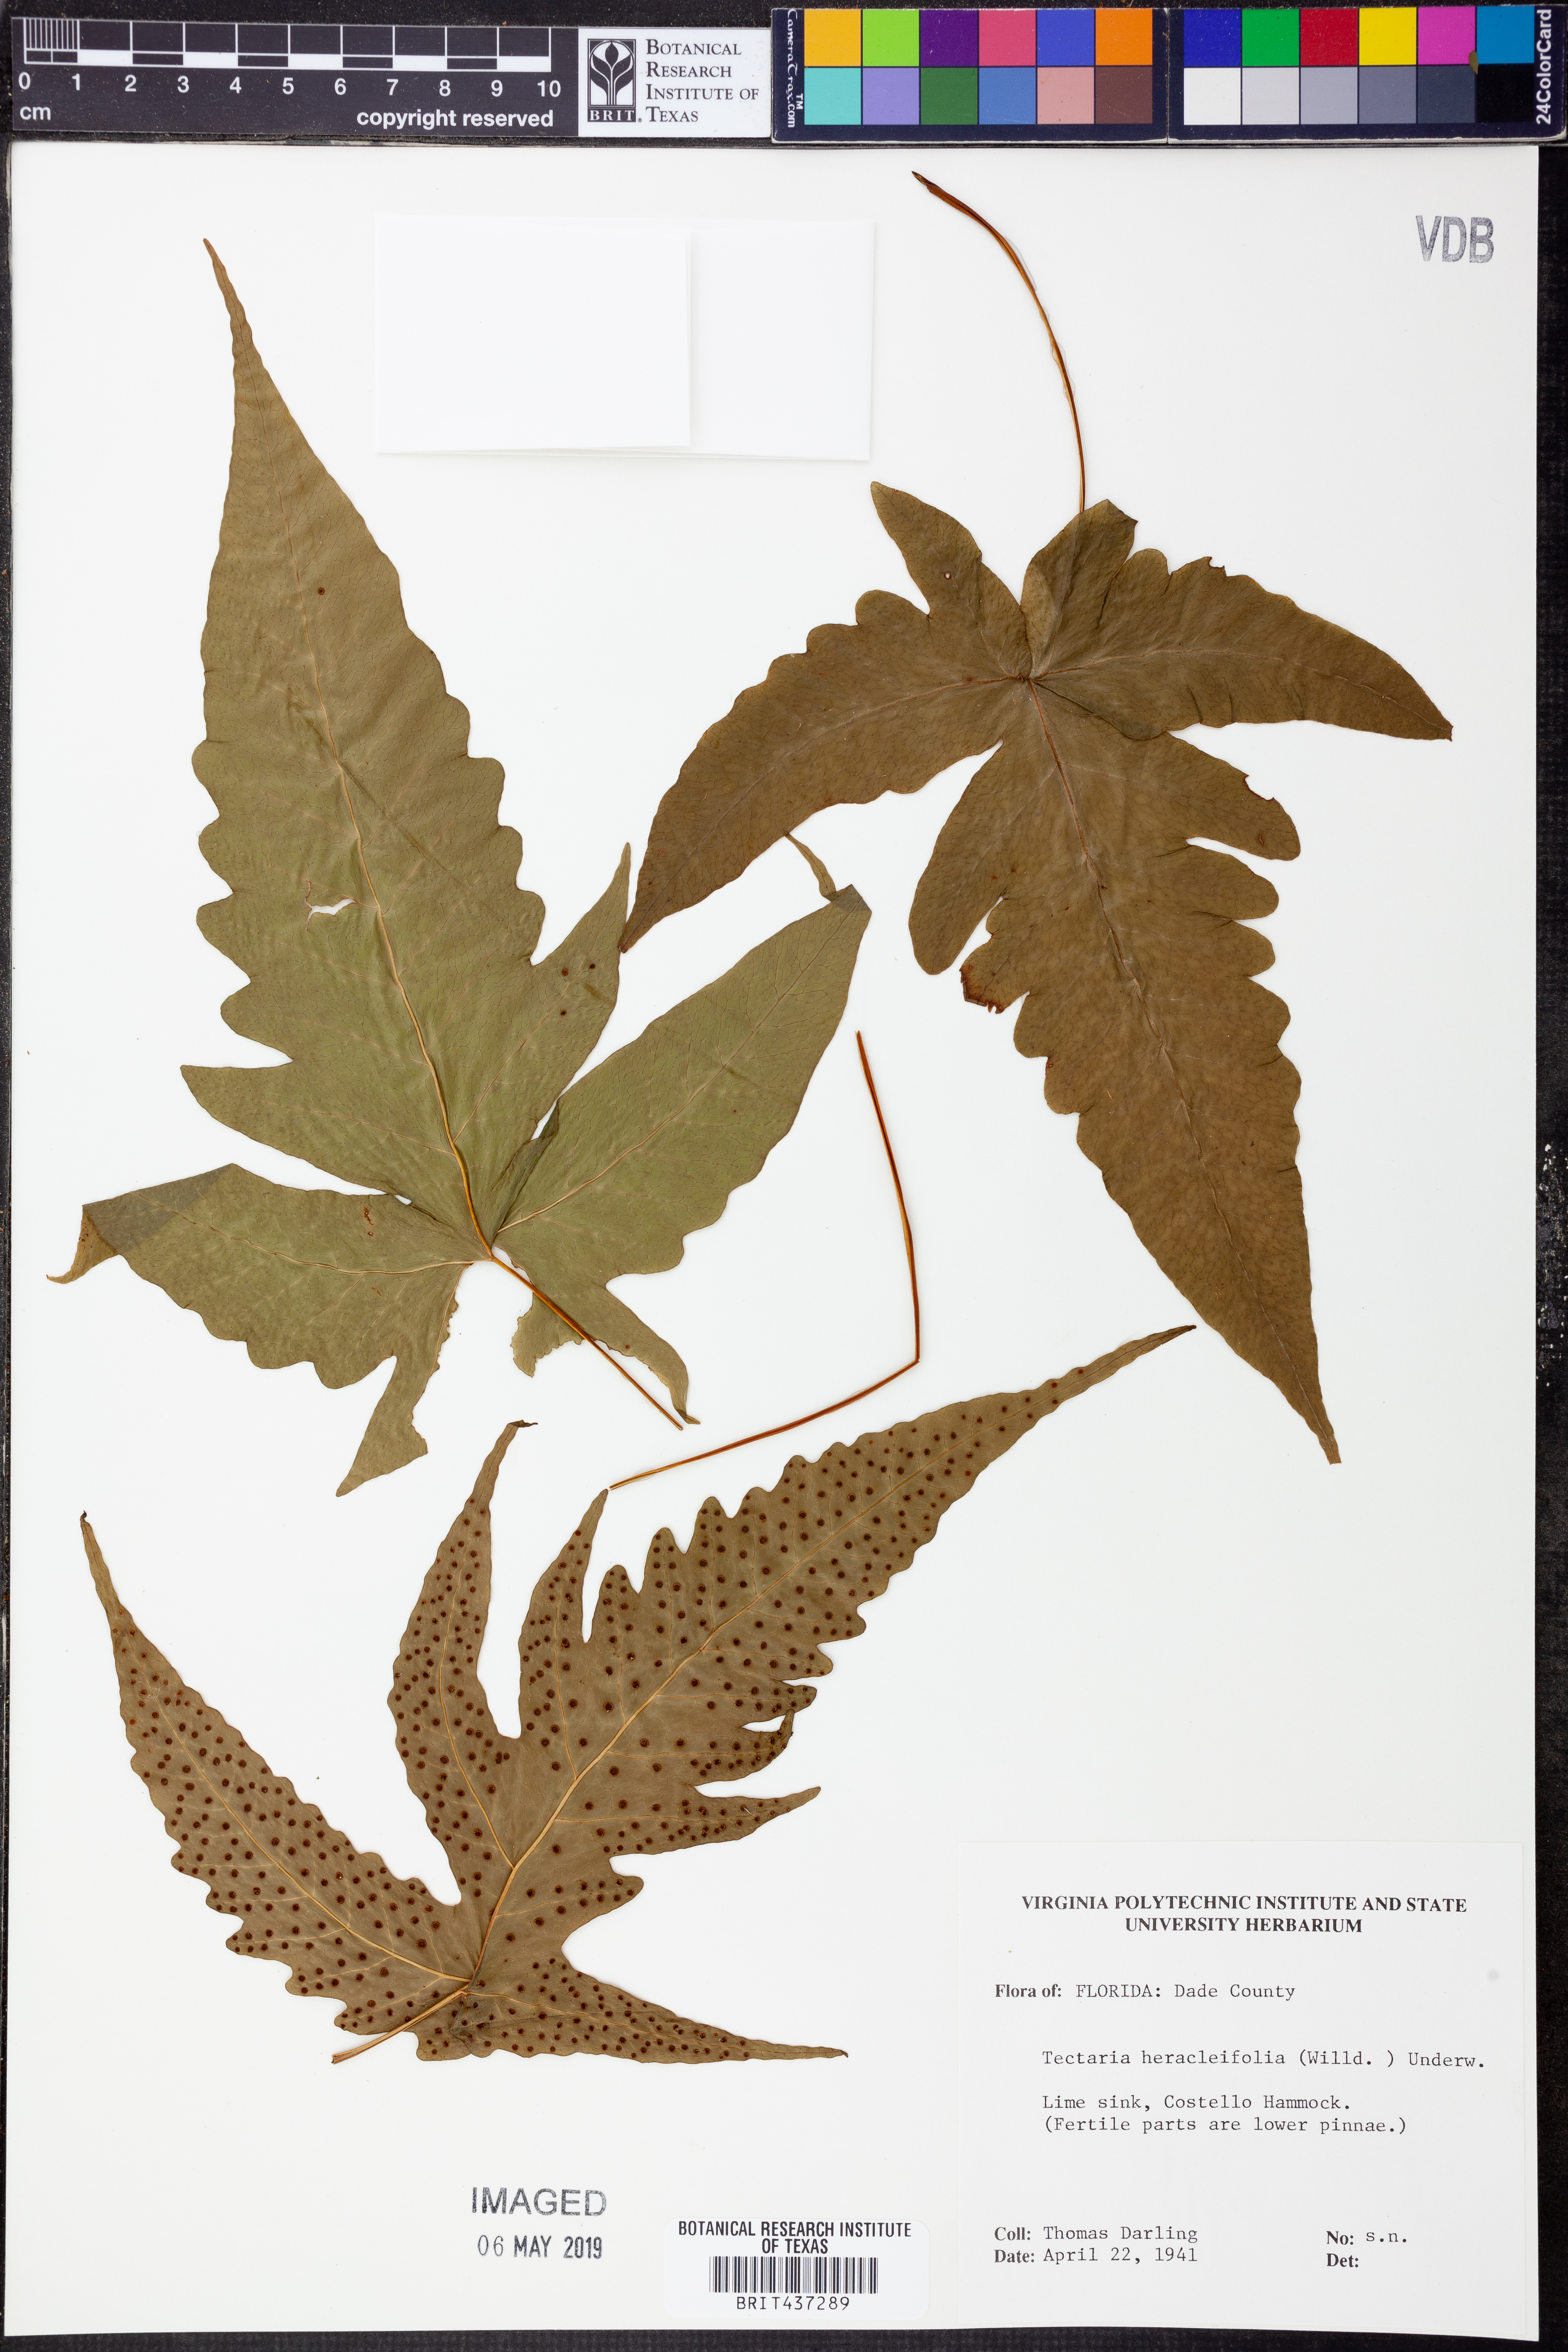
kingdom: Plantae
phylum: Tracheophyta
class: Polypodiopsida
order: Polypodiales
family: Tectariaceae
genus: Tectaria
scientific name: Tectaria heracleifolia
